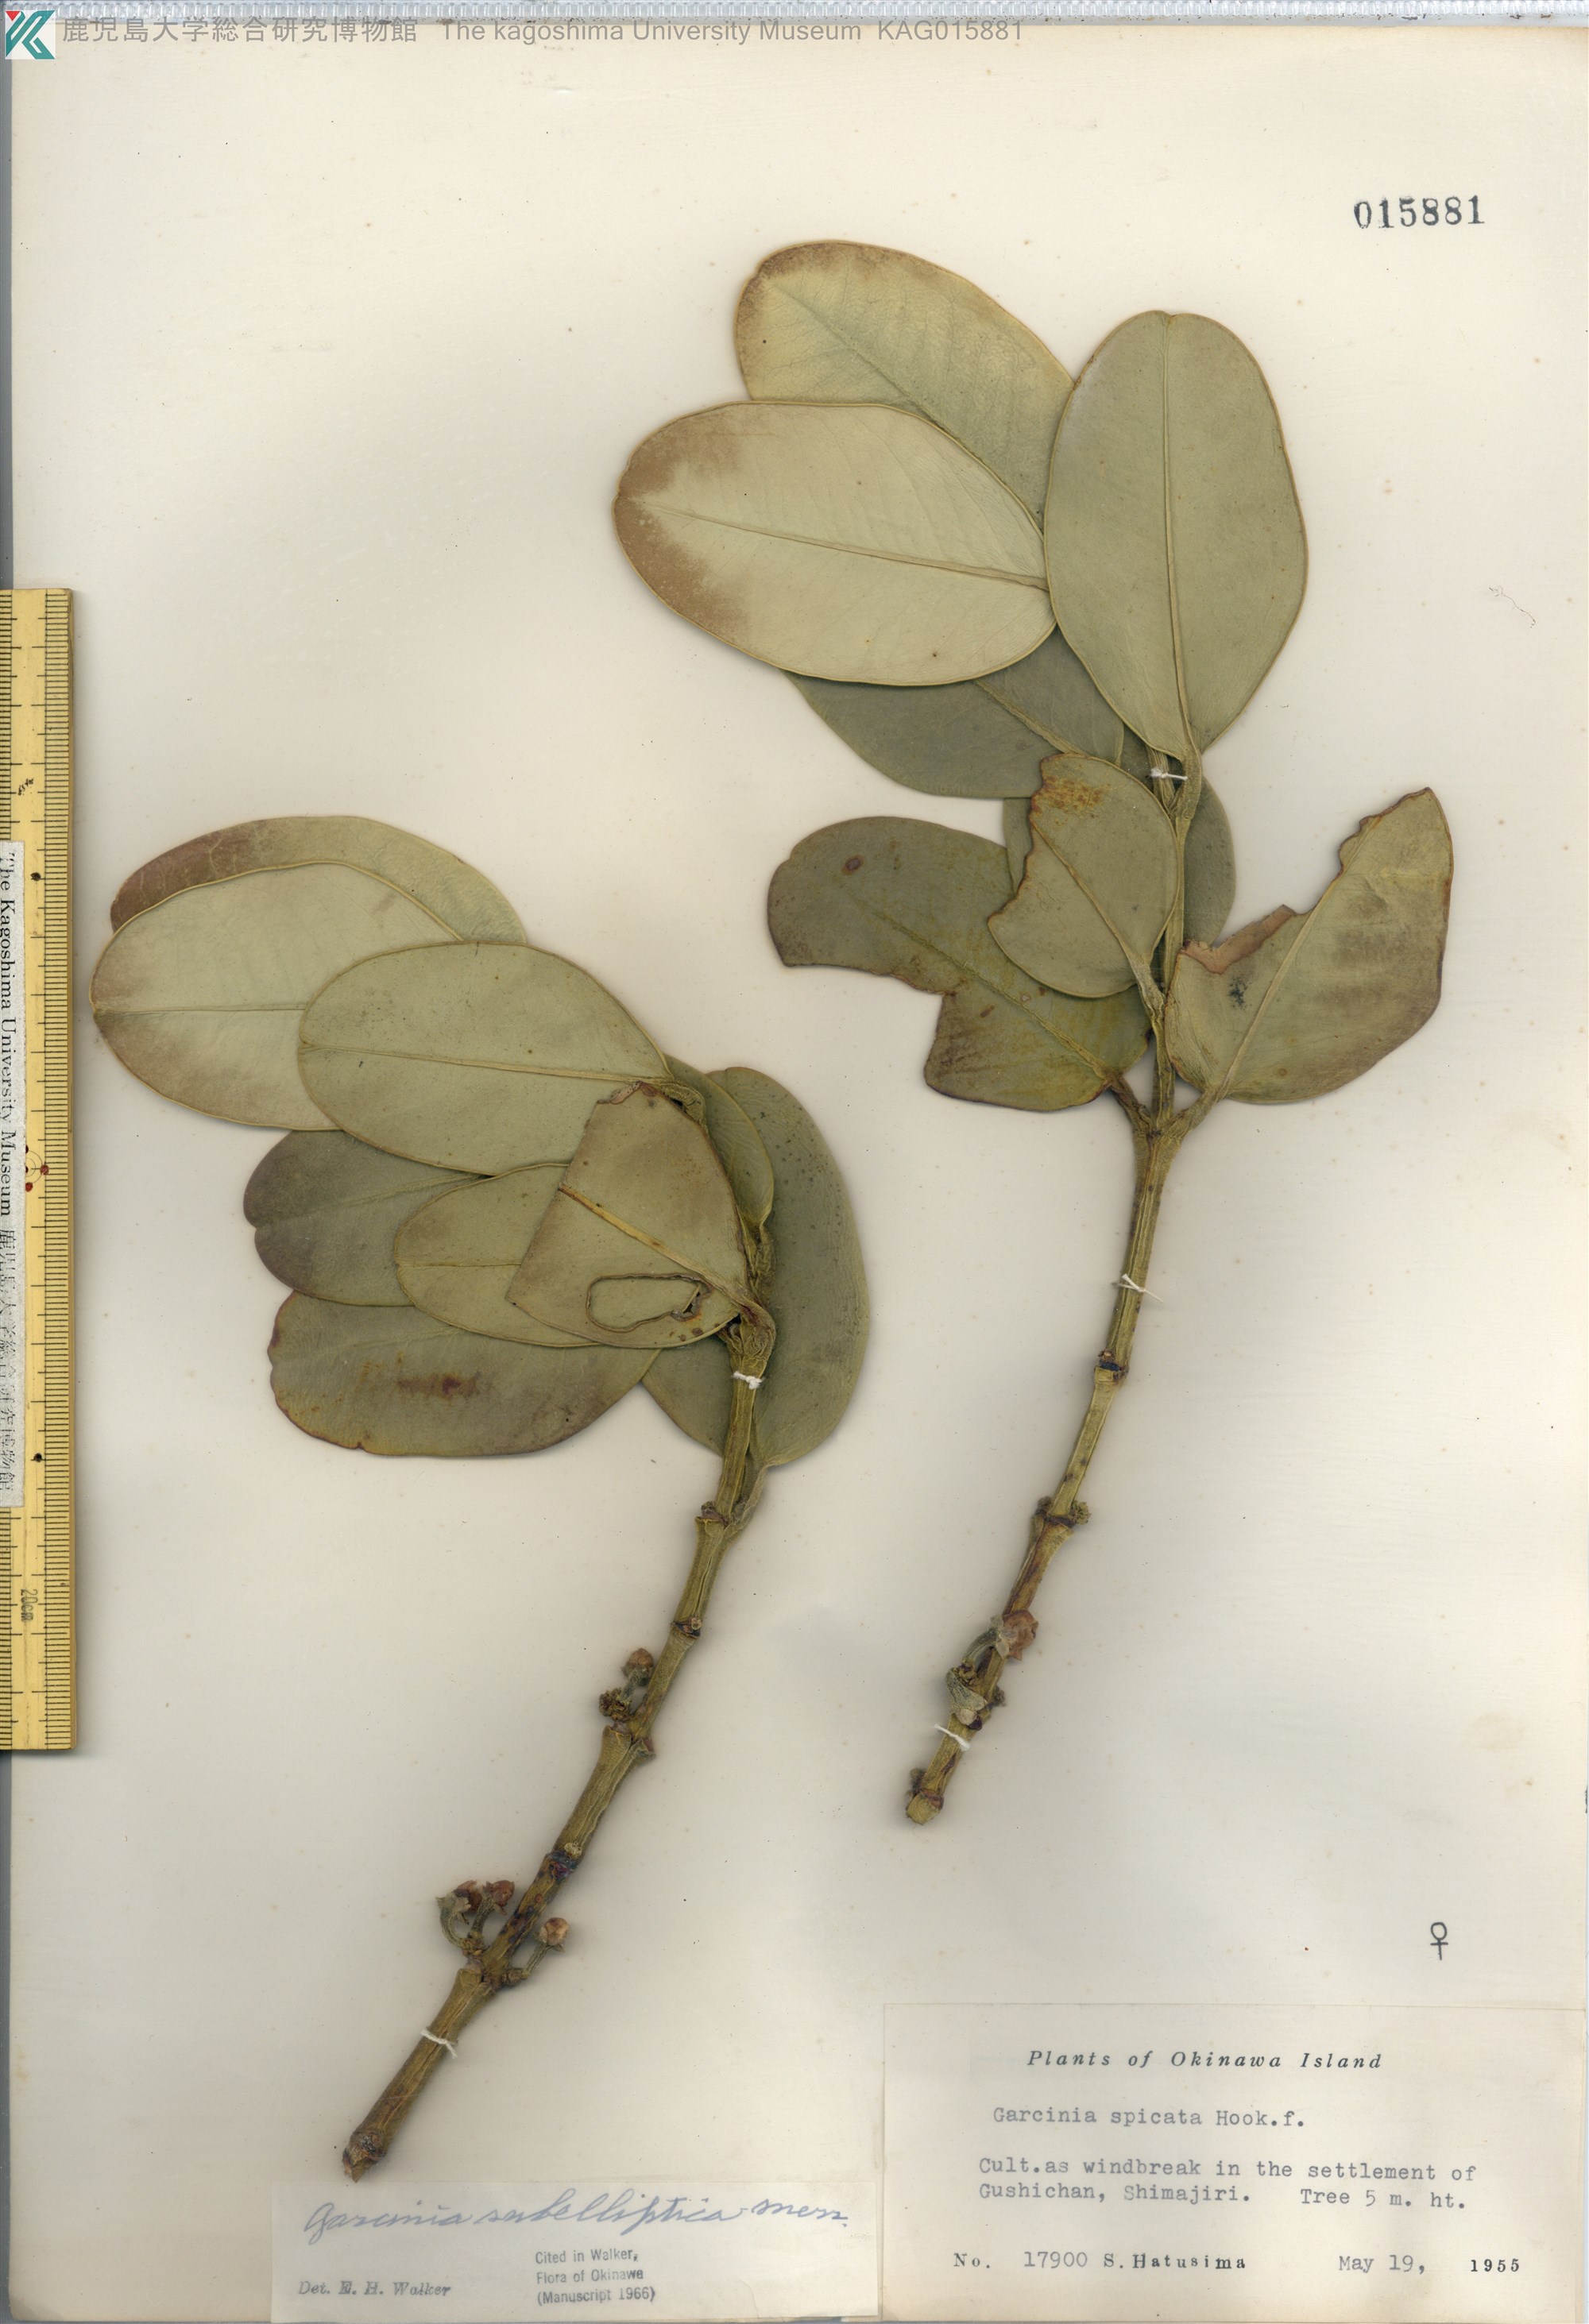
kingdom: Plantae
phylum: Tracheophyta
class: Magnoliopsida
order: Malpighiales
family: Clusiaceae
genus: Garcinia
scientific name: Garcinia subelliptica
